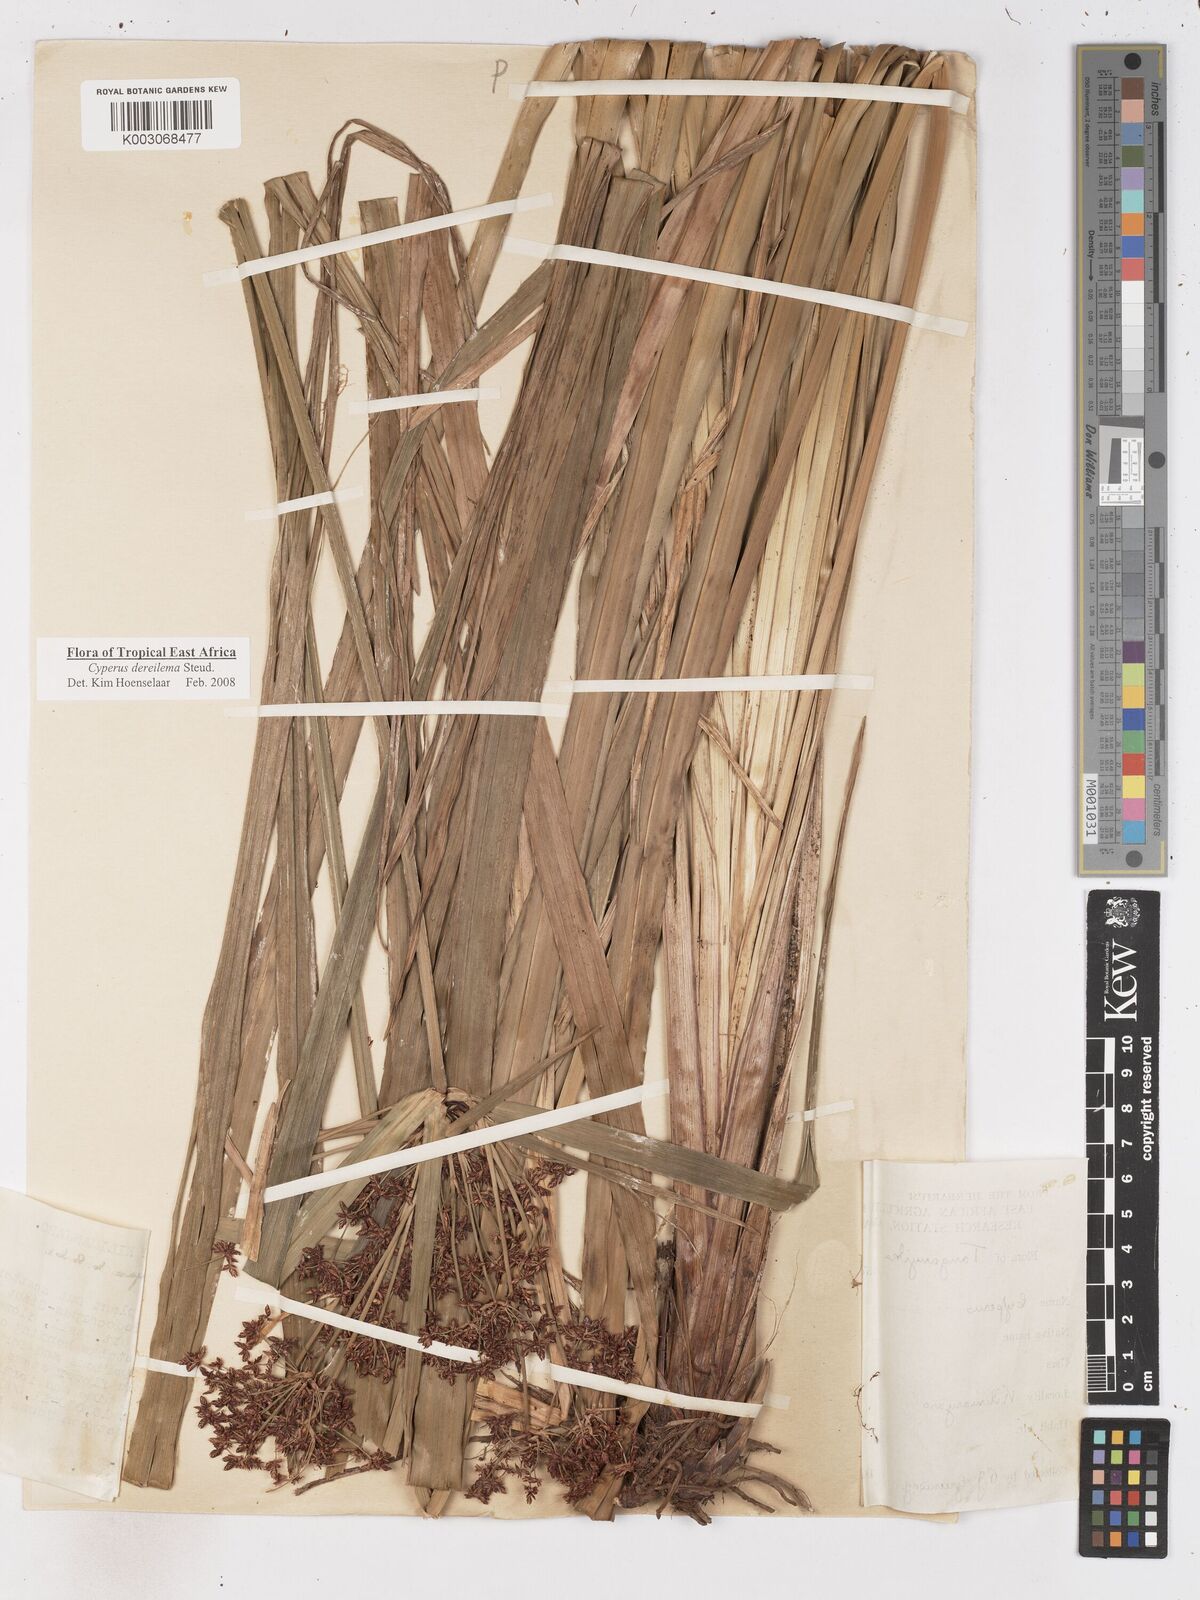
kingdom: Plantae
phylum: Tracheophyta
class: Liliopsida
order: Poales
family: Cyperaceae
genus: Cyperus
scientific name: Cyperus derreilema
